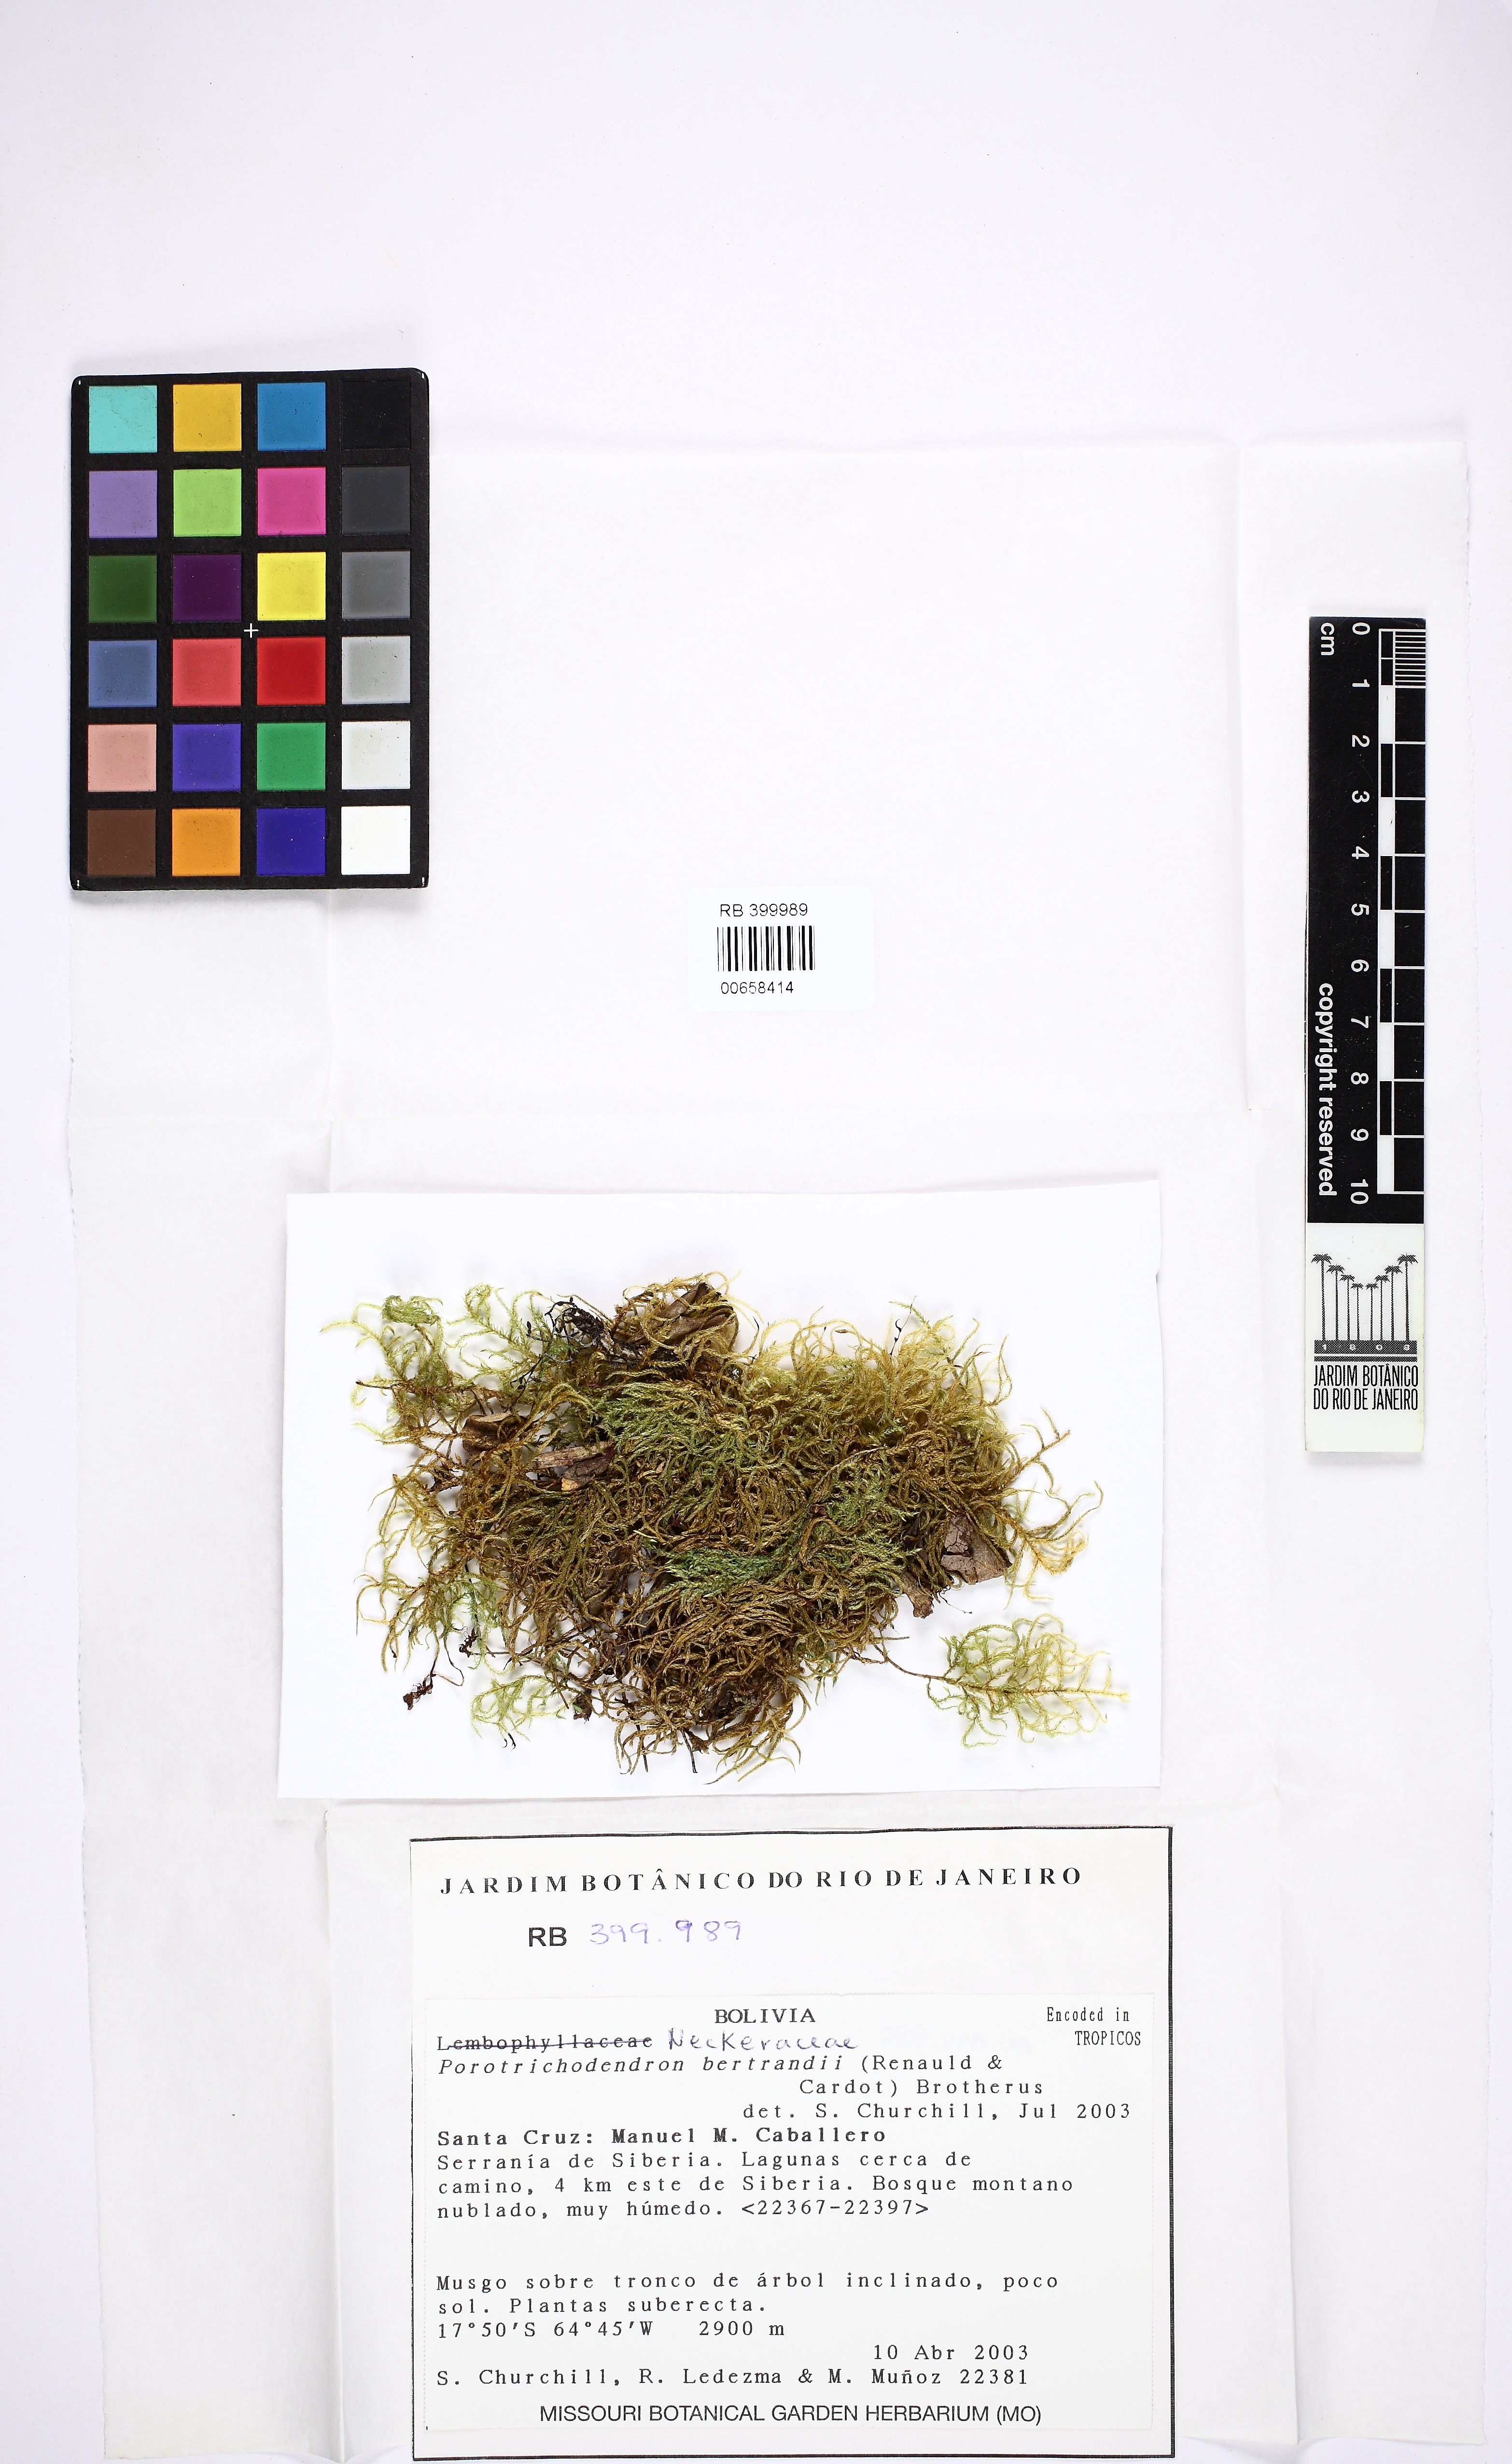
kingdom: Plantae
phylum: Bryophyta
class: Bryopsida
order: Hypnales
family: Neckeraceae
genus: Porotrichum
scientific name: Porotrichum bertrandii
